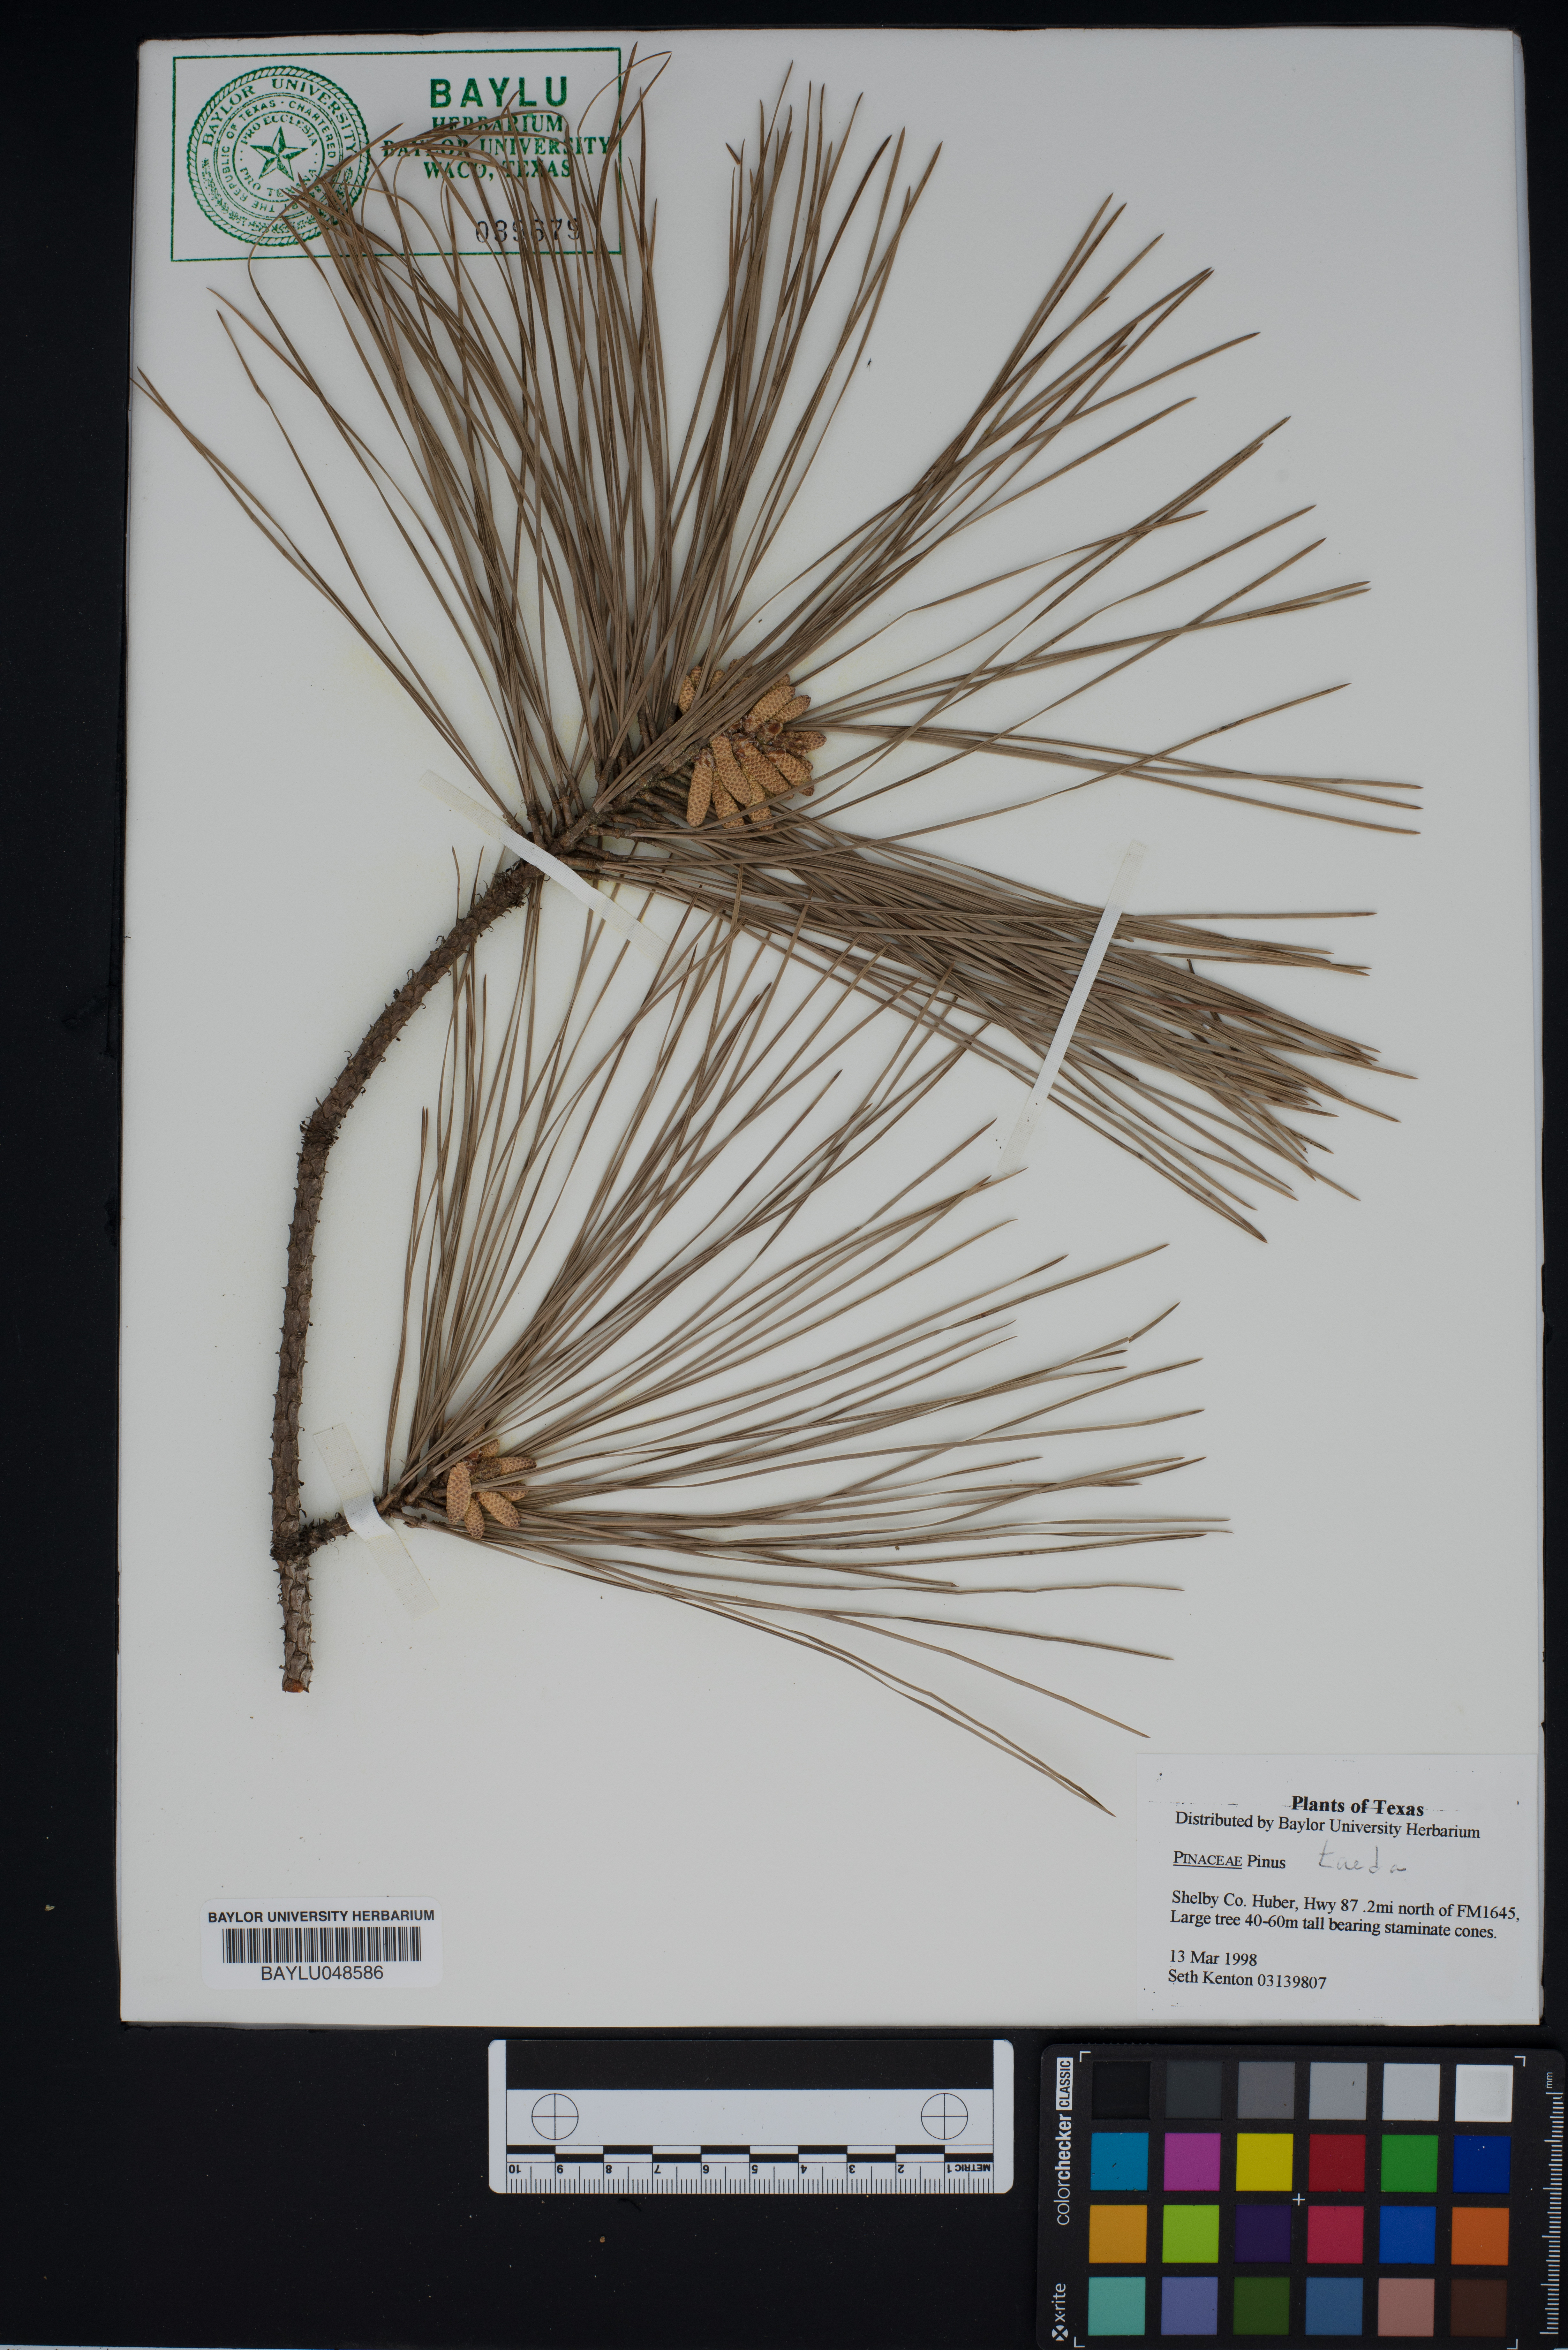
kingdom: Plantae
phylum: Tracheophyta
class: Pinopsida
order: Pinales
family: Pinaceae
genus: Pinus
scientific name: Pinus taeda
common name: Loblolly pine
